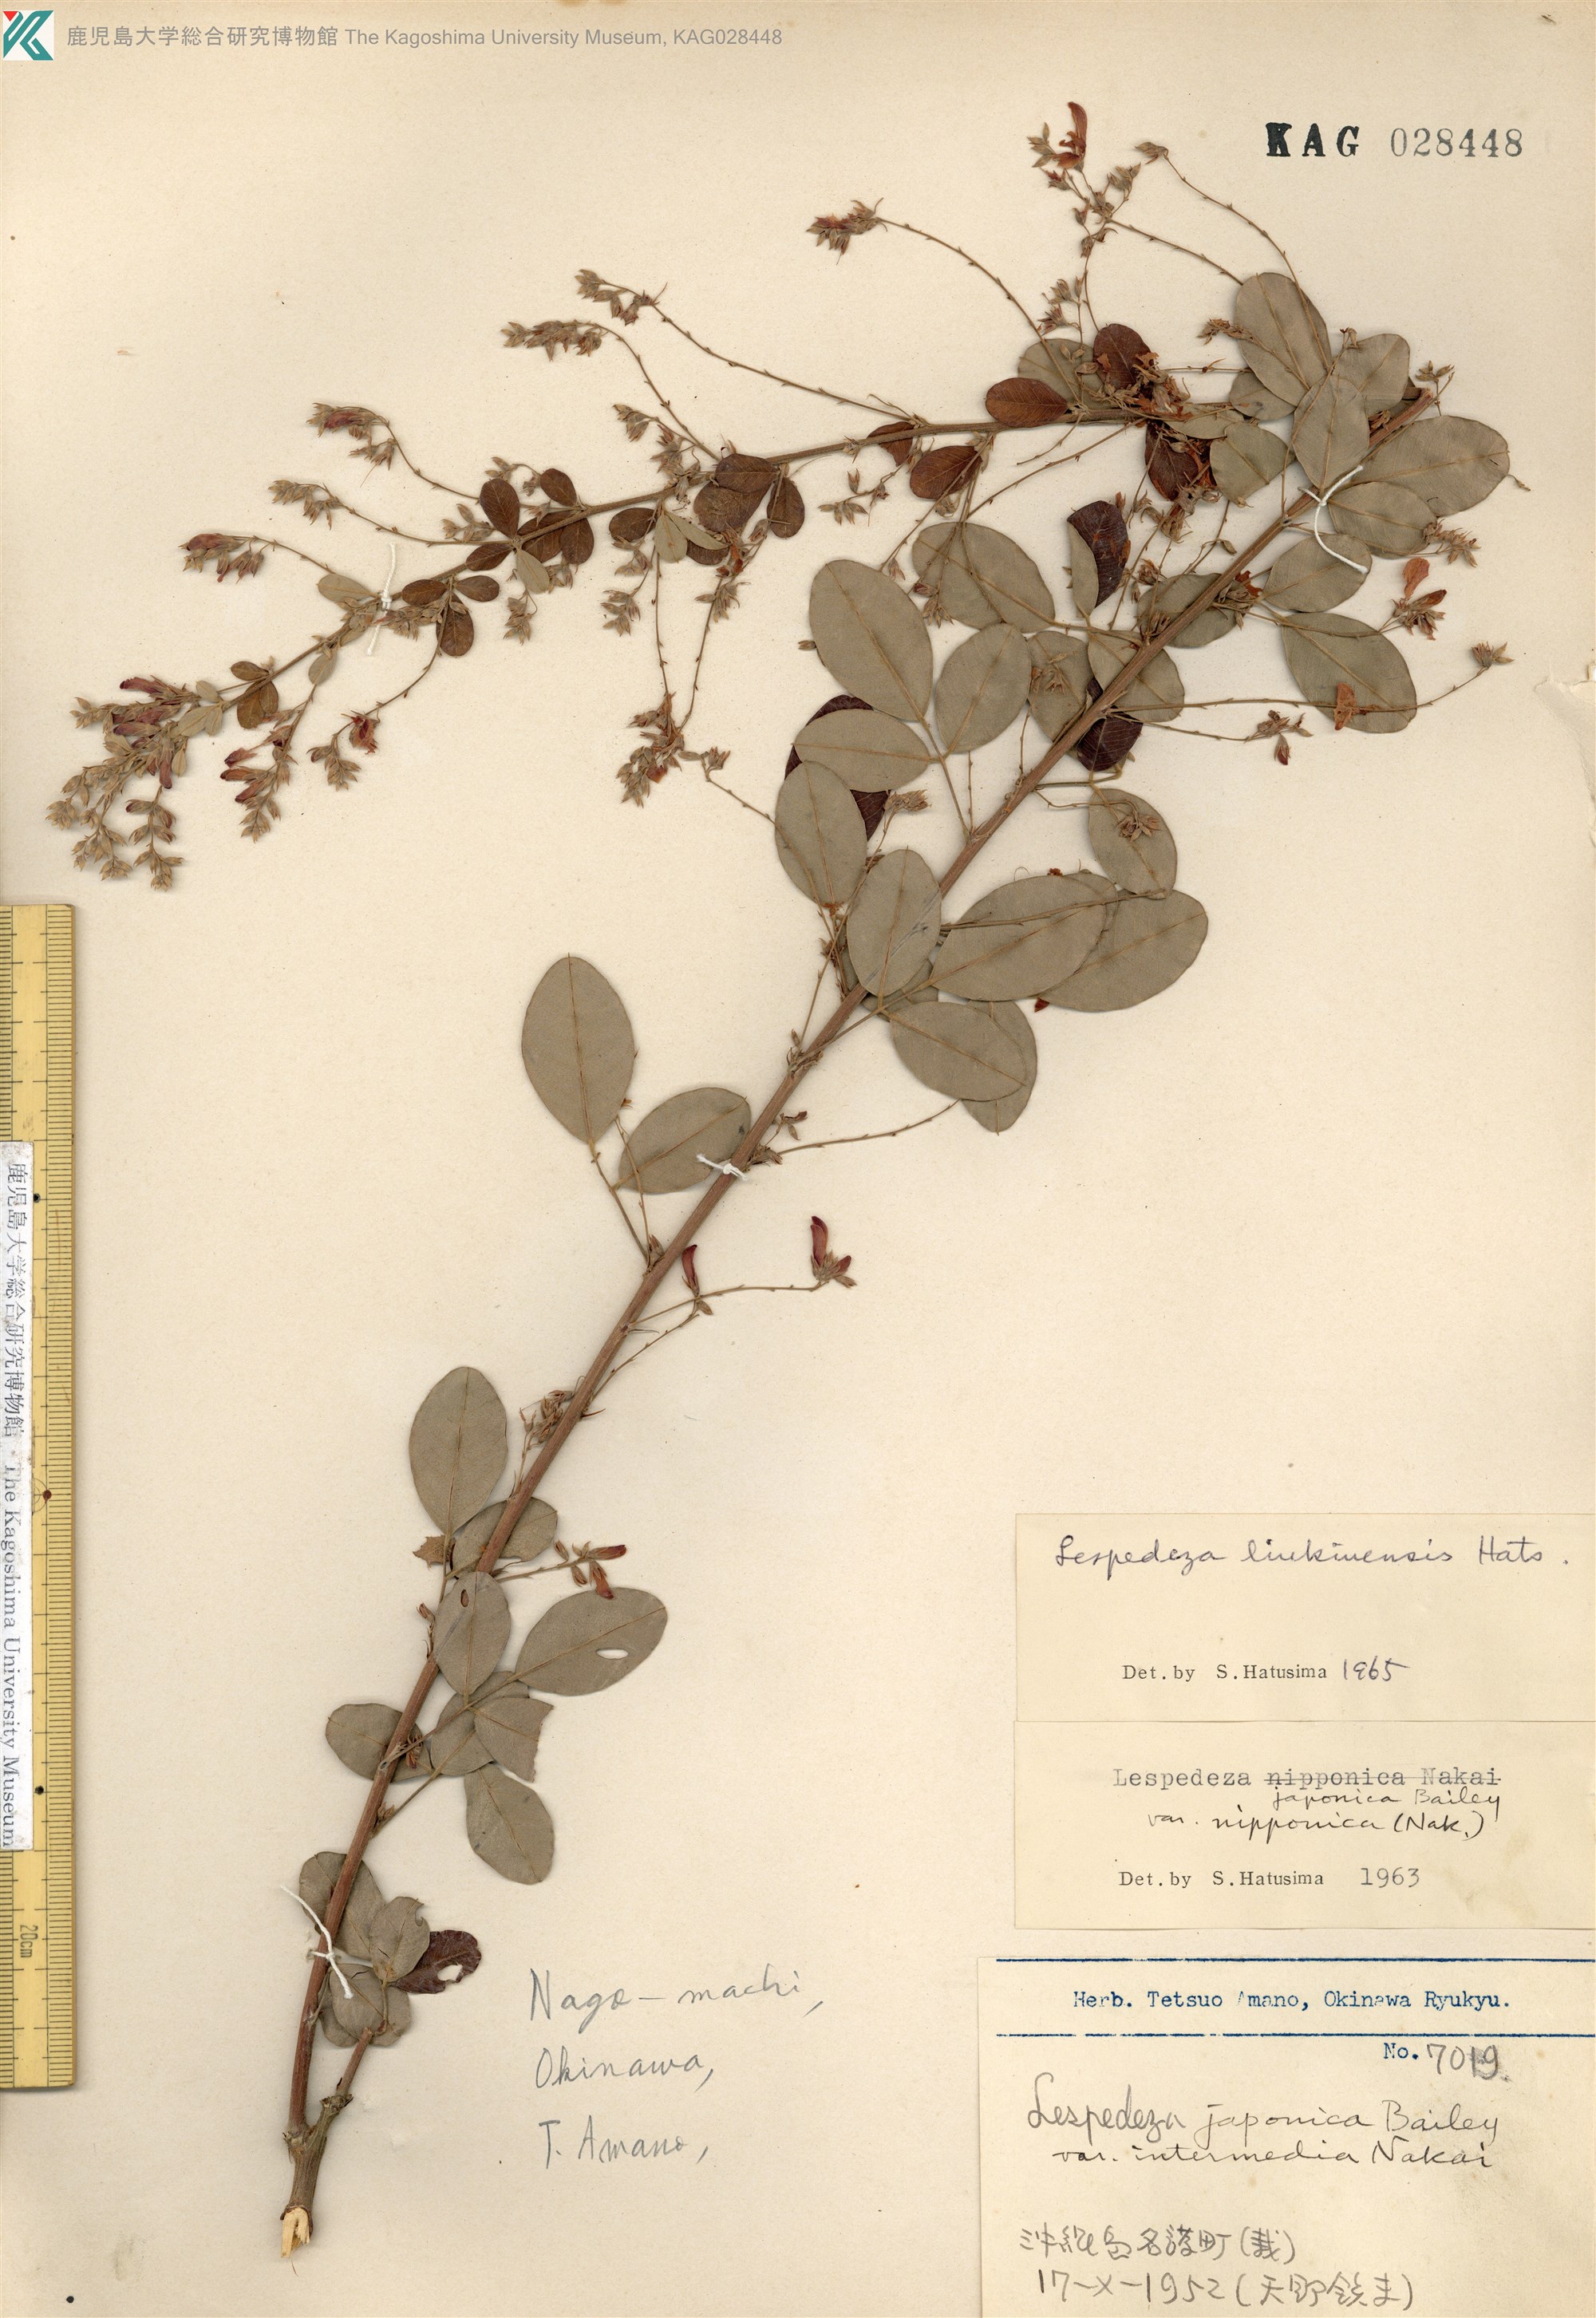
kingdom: Plantae
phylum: Tracheophyta
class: Magnoliopsida
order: Fabales
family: Fabaceae
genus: Lespedeza
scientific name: Lespedeza thunbergii
